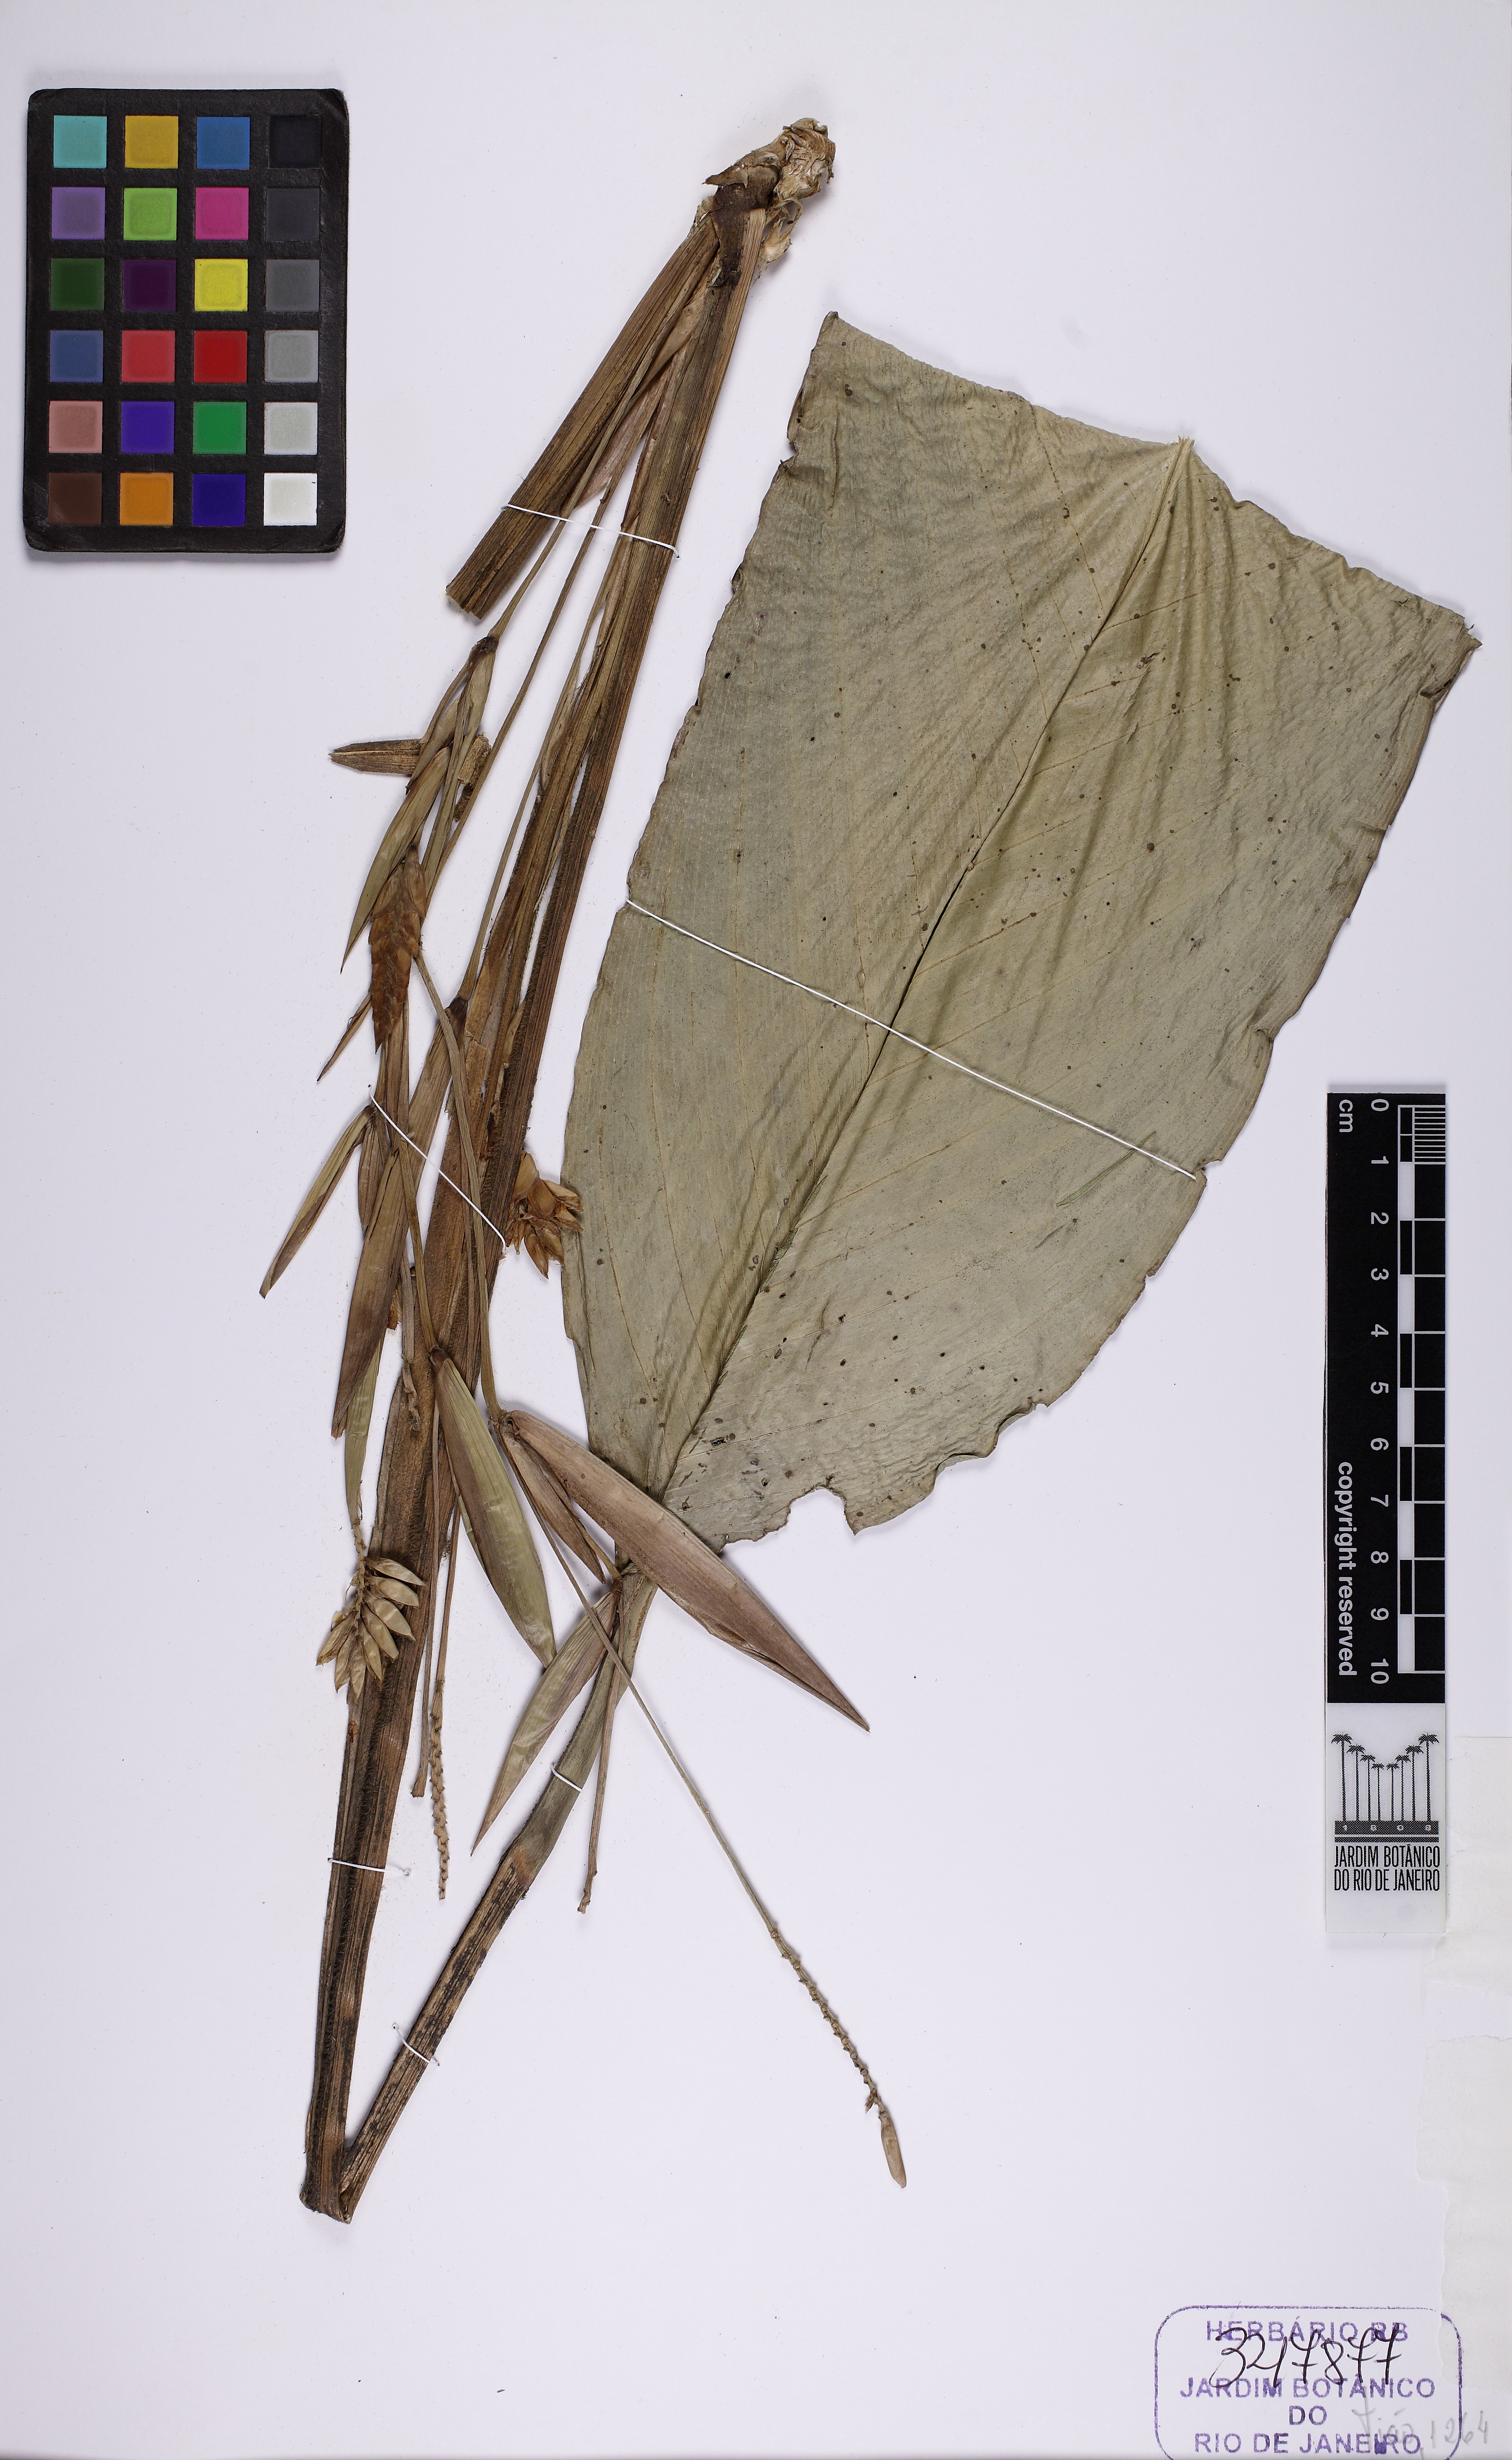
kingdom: Plantae
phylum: Tracheophyta
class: Liliopsida
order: Zingiberales
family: Marantaceae
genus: Saranthe
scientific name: Saranthe leptostachya
